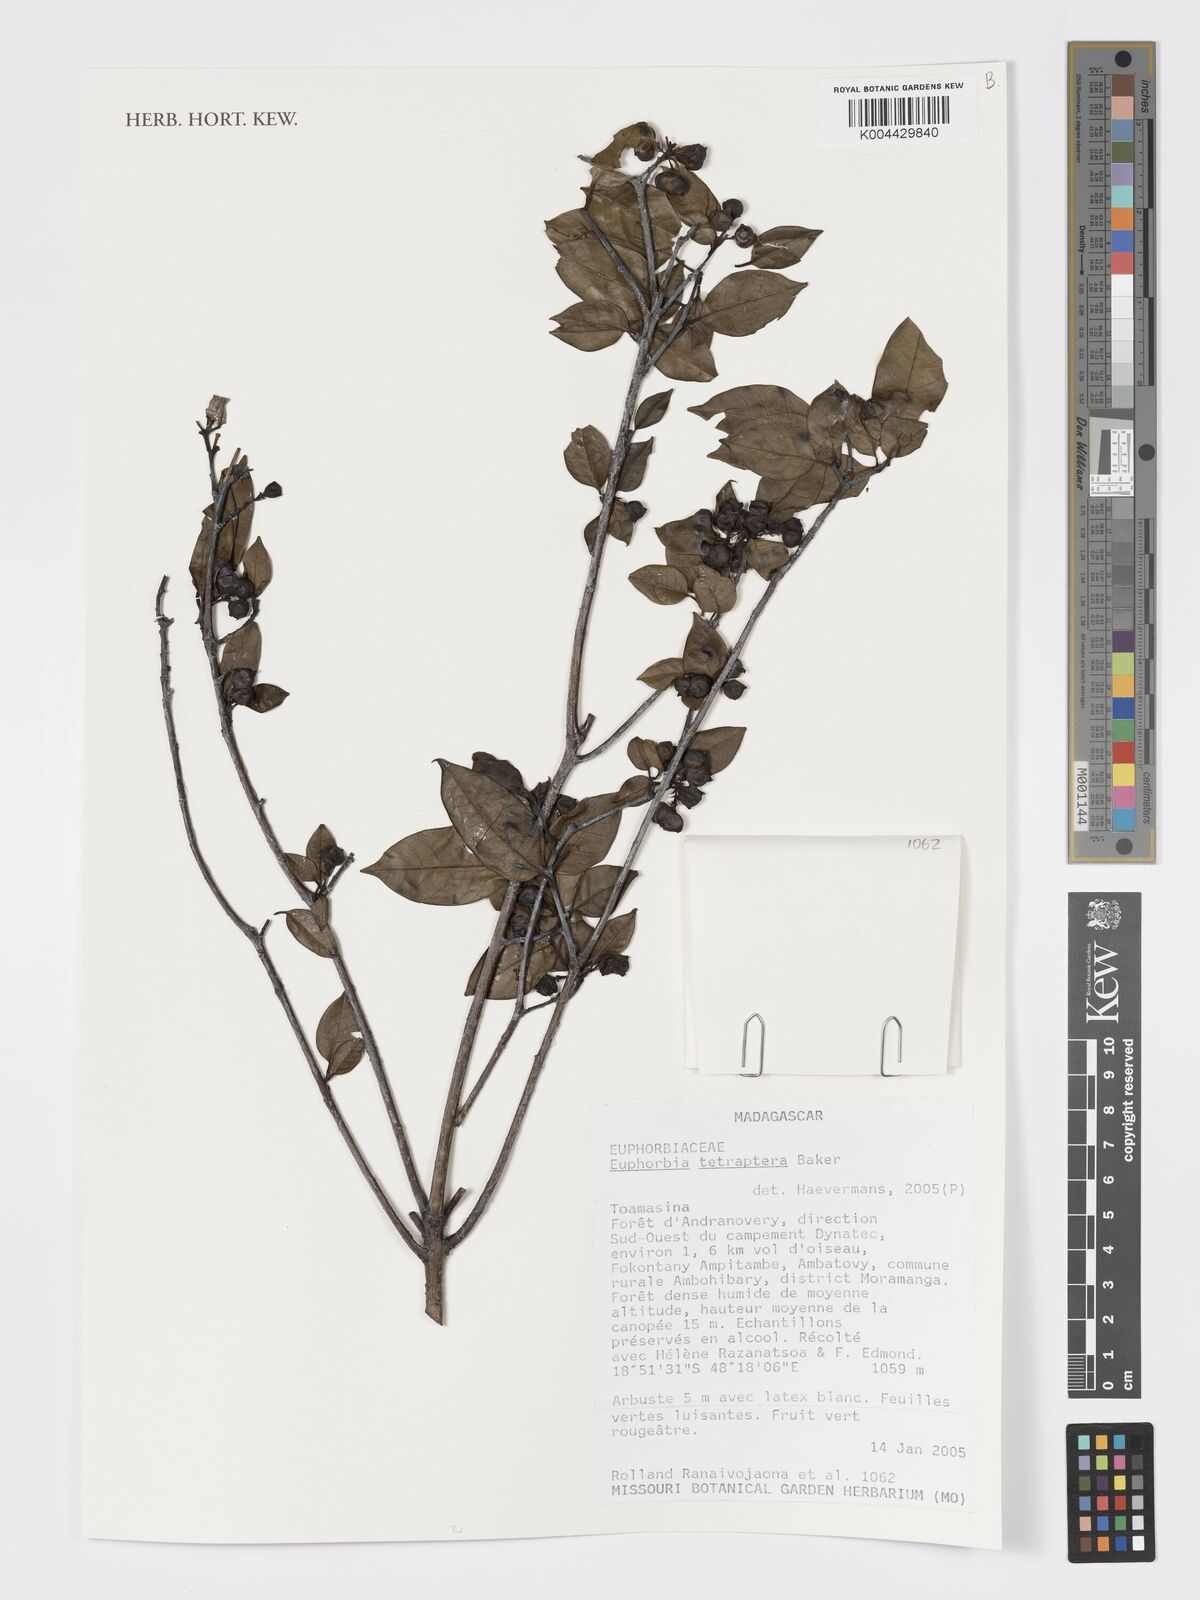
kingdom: Plantae
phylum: Tracheophyta
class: Magnoliopsida
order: Malpighiales
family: Euphorbiaceae
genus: Euphorbia
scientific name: Euphorbia tetraptera
